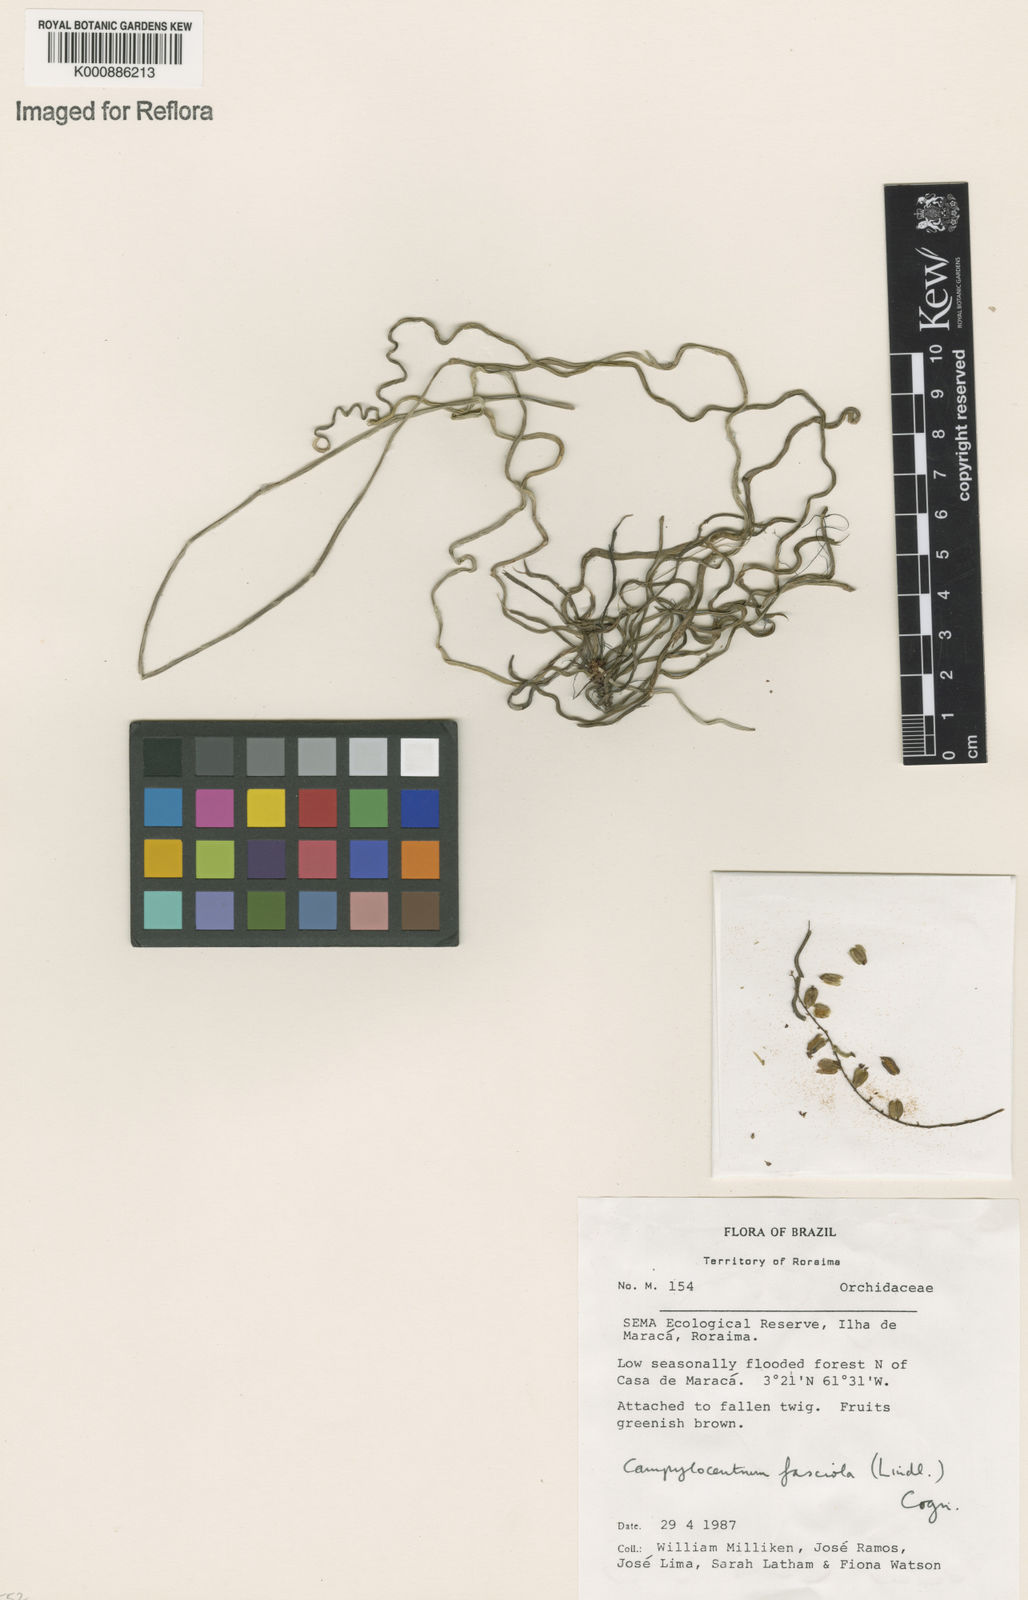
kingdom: Plantae
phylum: Tracheophyta
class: Liliopsida
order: Asparagales
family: Orchidaceae
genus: Campylocentrum
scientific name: Campylocentrum fasciola
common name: Arboreal bentspur orchid
